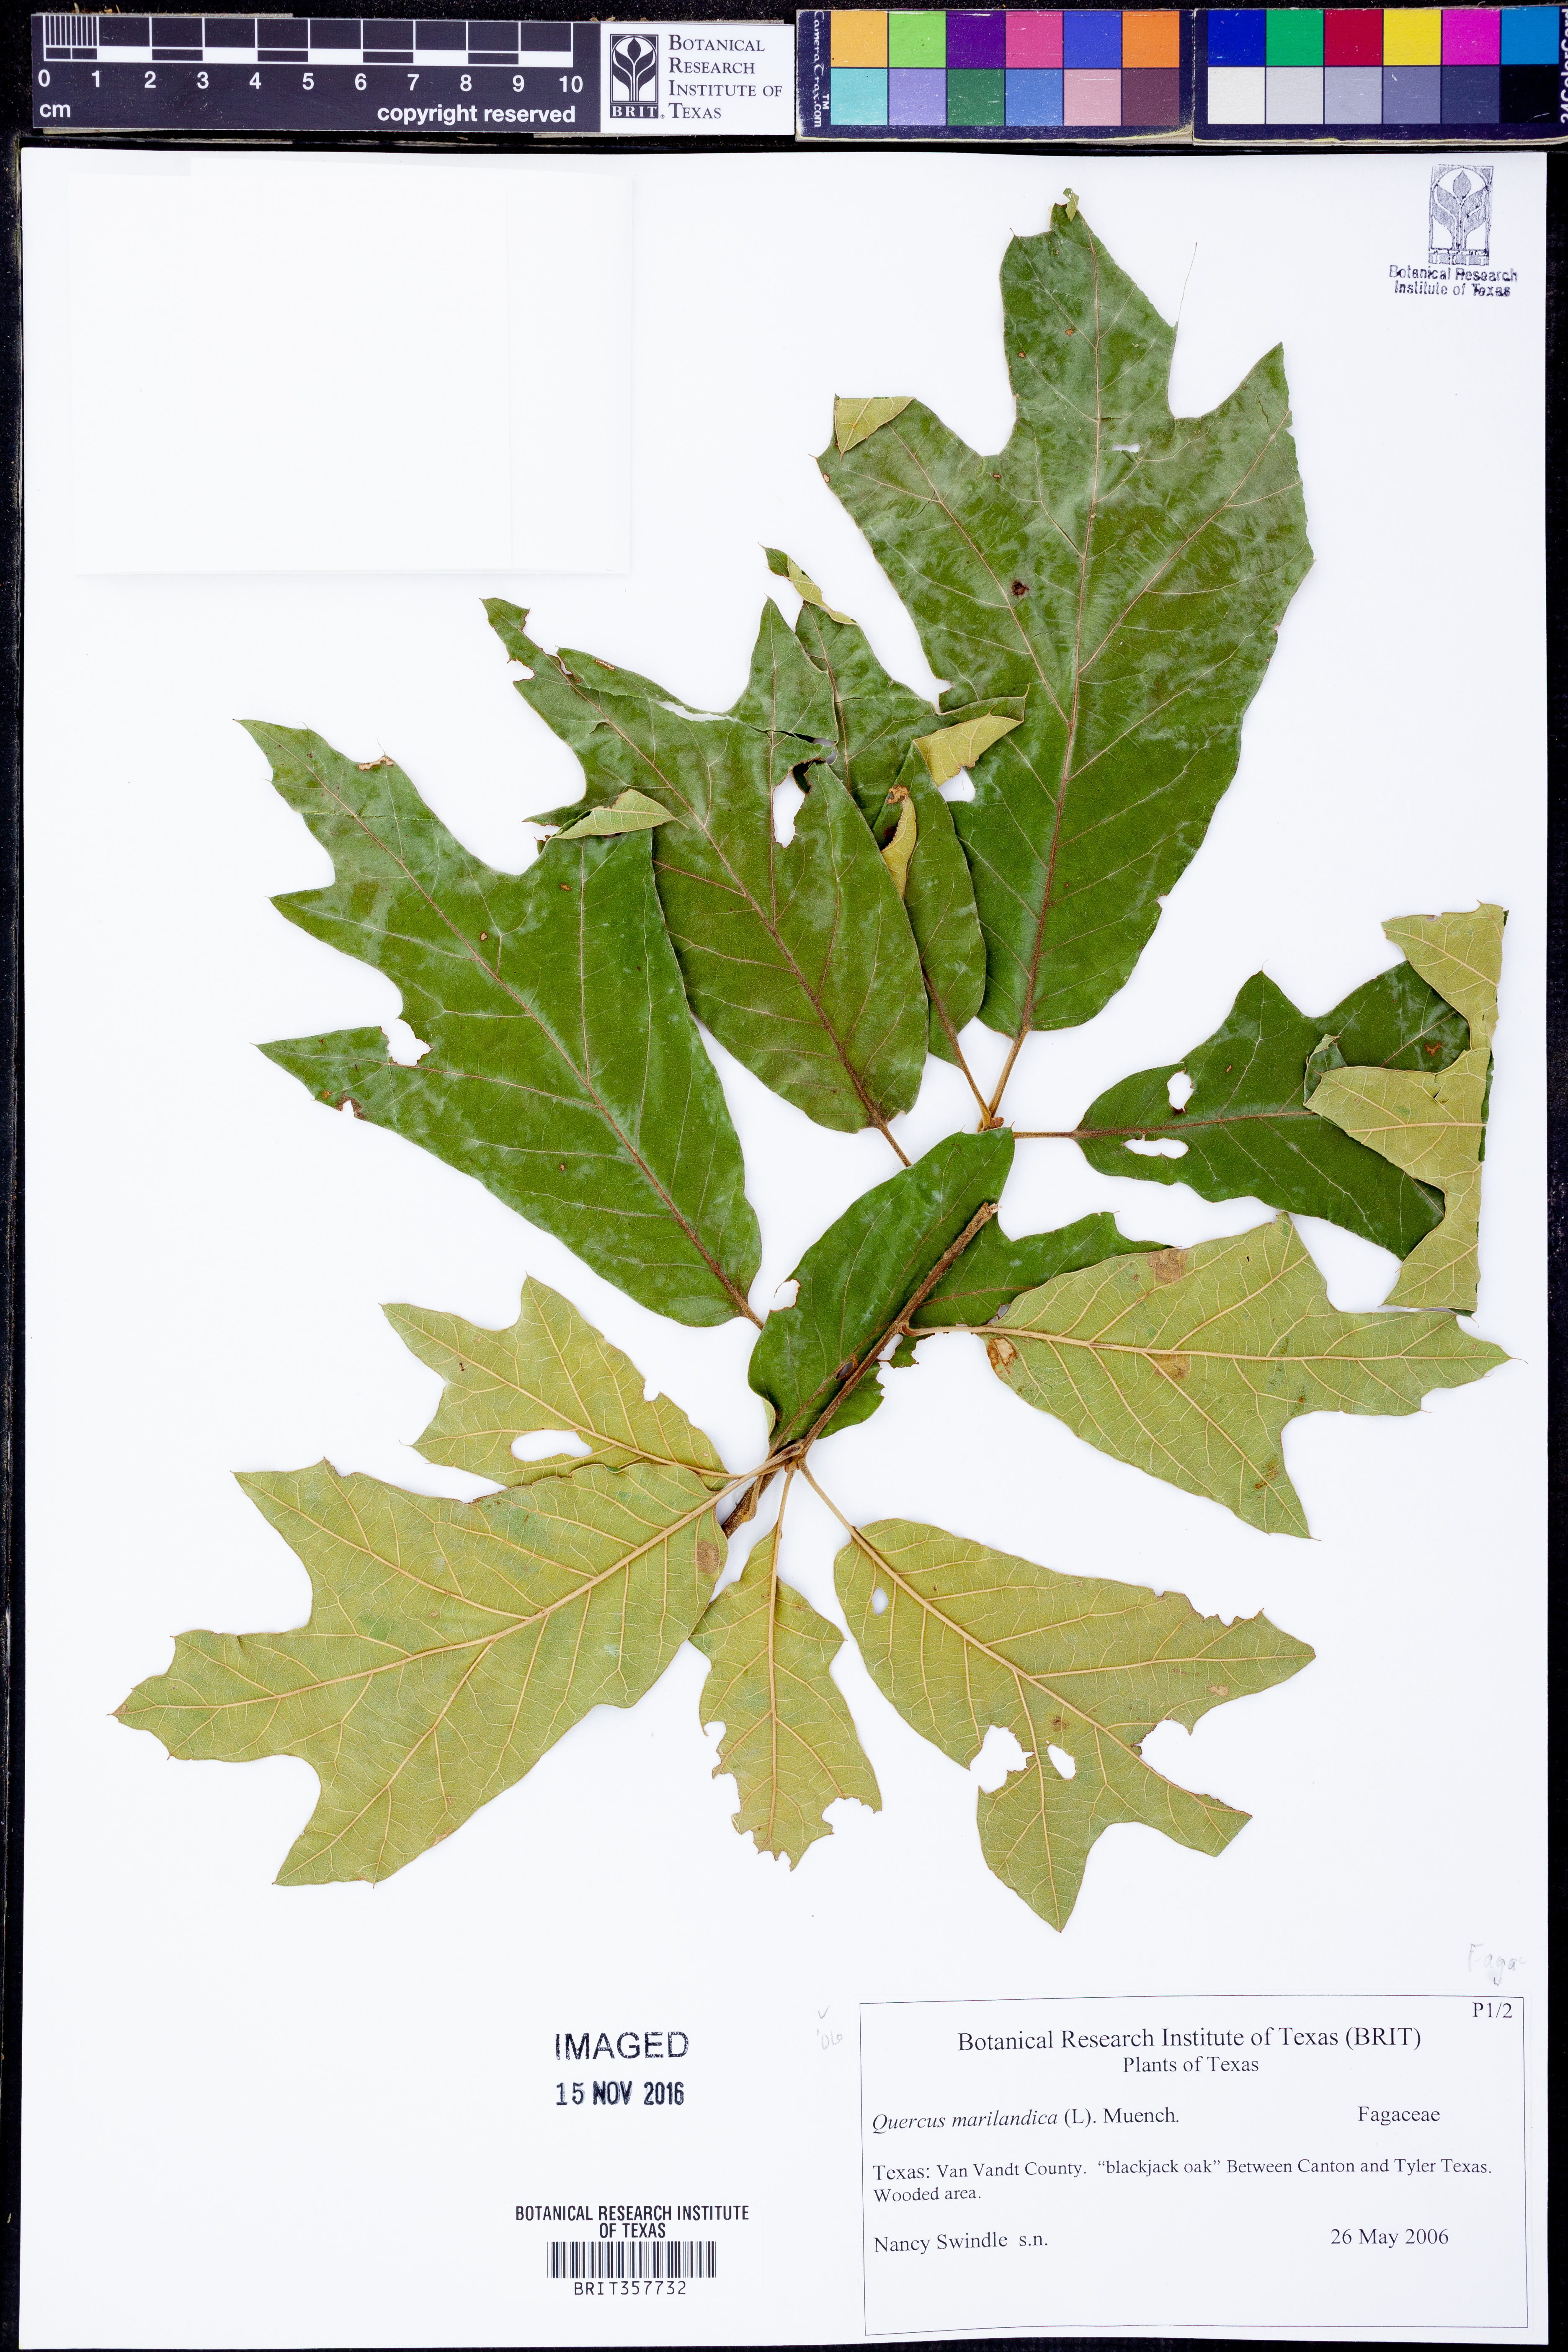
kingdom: Plantae
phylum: Tracheophyta
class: Magnoliopsida
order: Fagales
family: Fagaceae
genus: Quercus
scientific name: Quercus marilandica
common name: Blackjack oak
